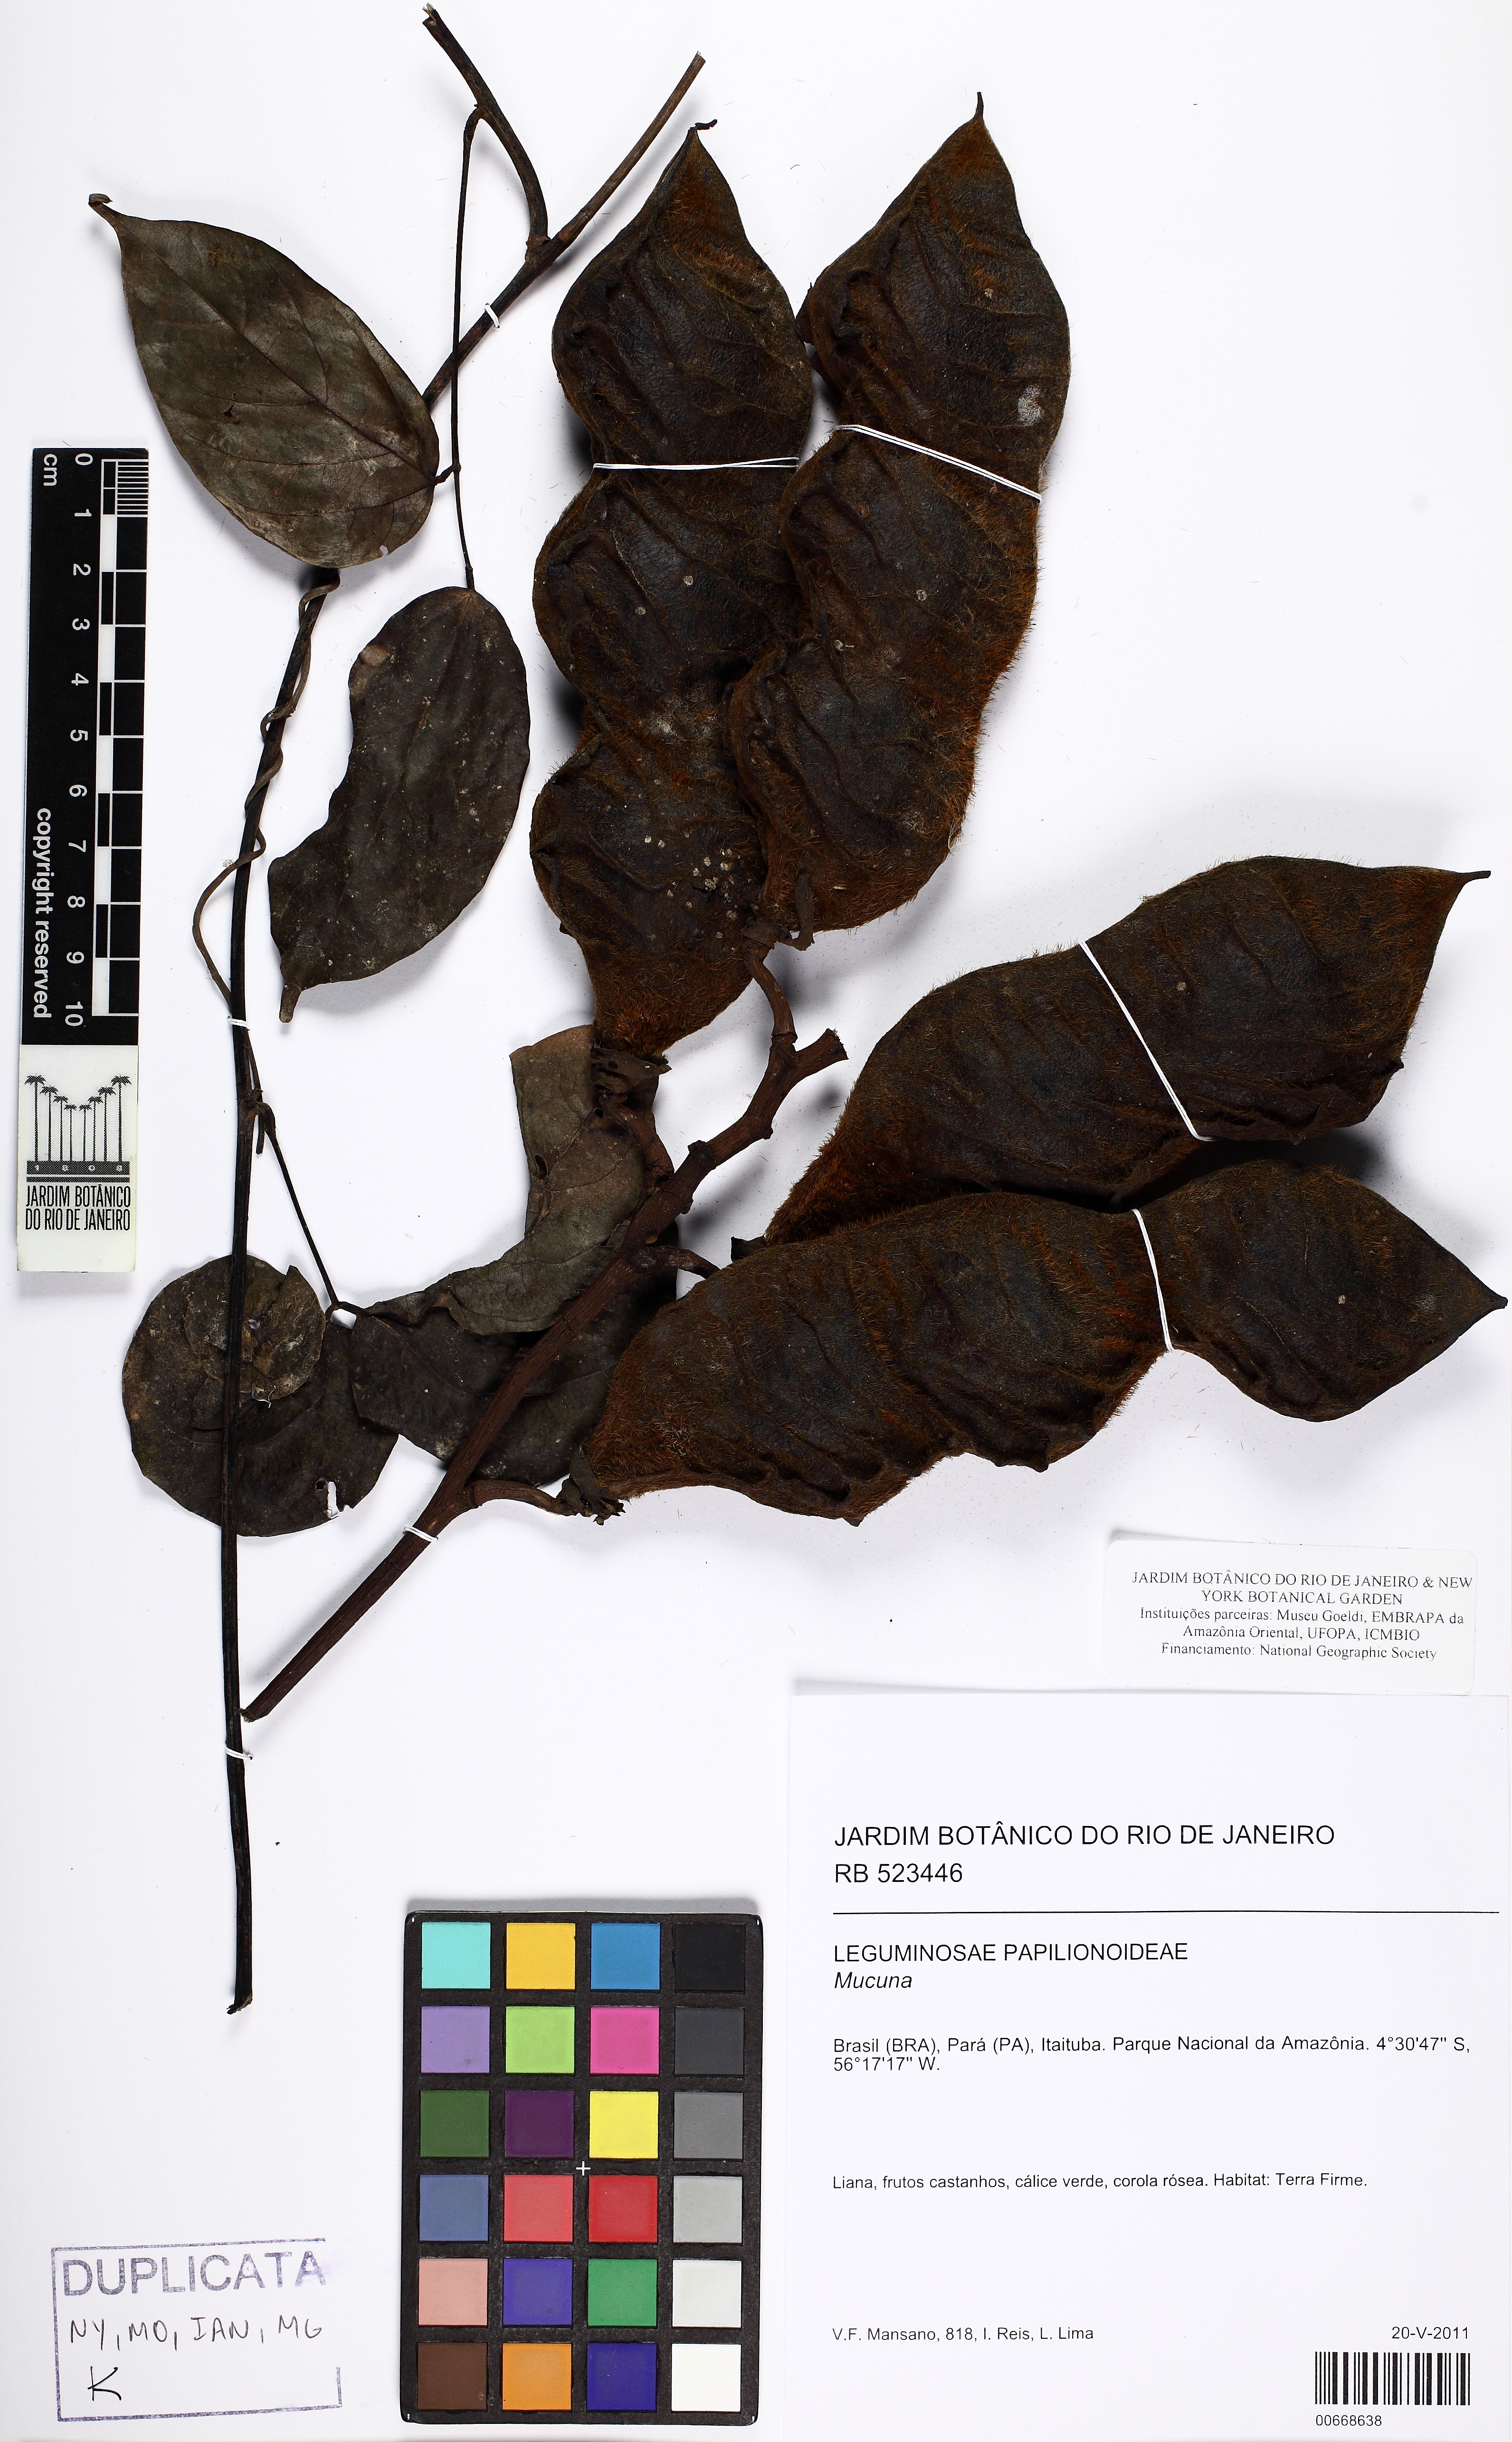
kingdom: Plantae
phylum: Tracheophyta
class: Magnoliopsida
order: Fabales
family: Fabaceae
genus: Mucuna
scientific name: Mucuna
